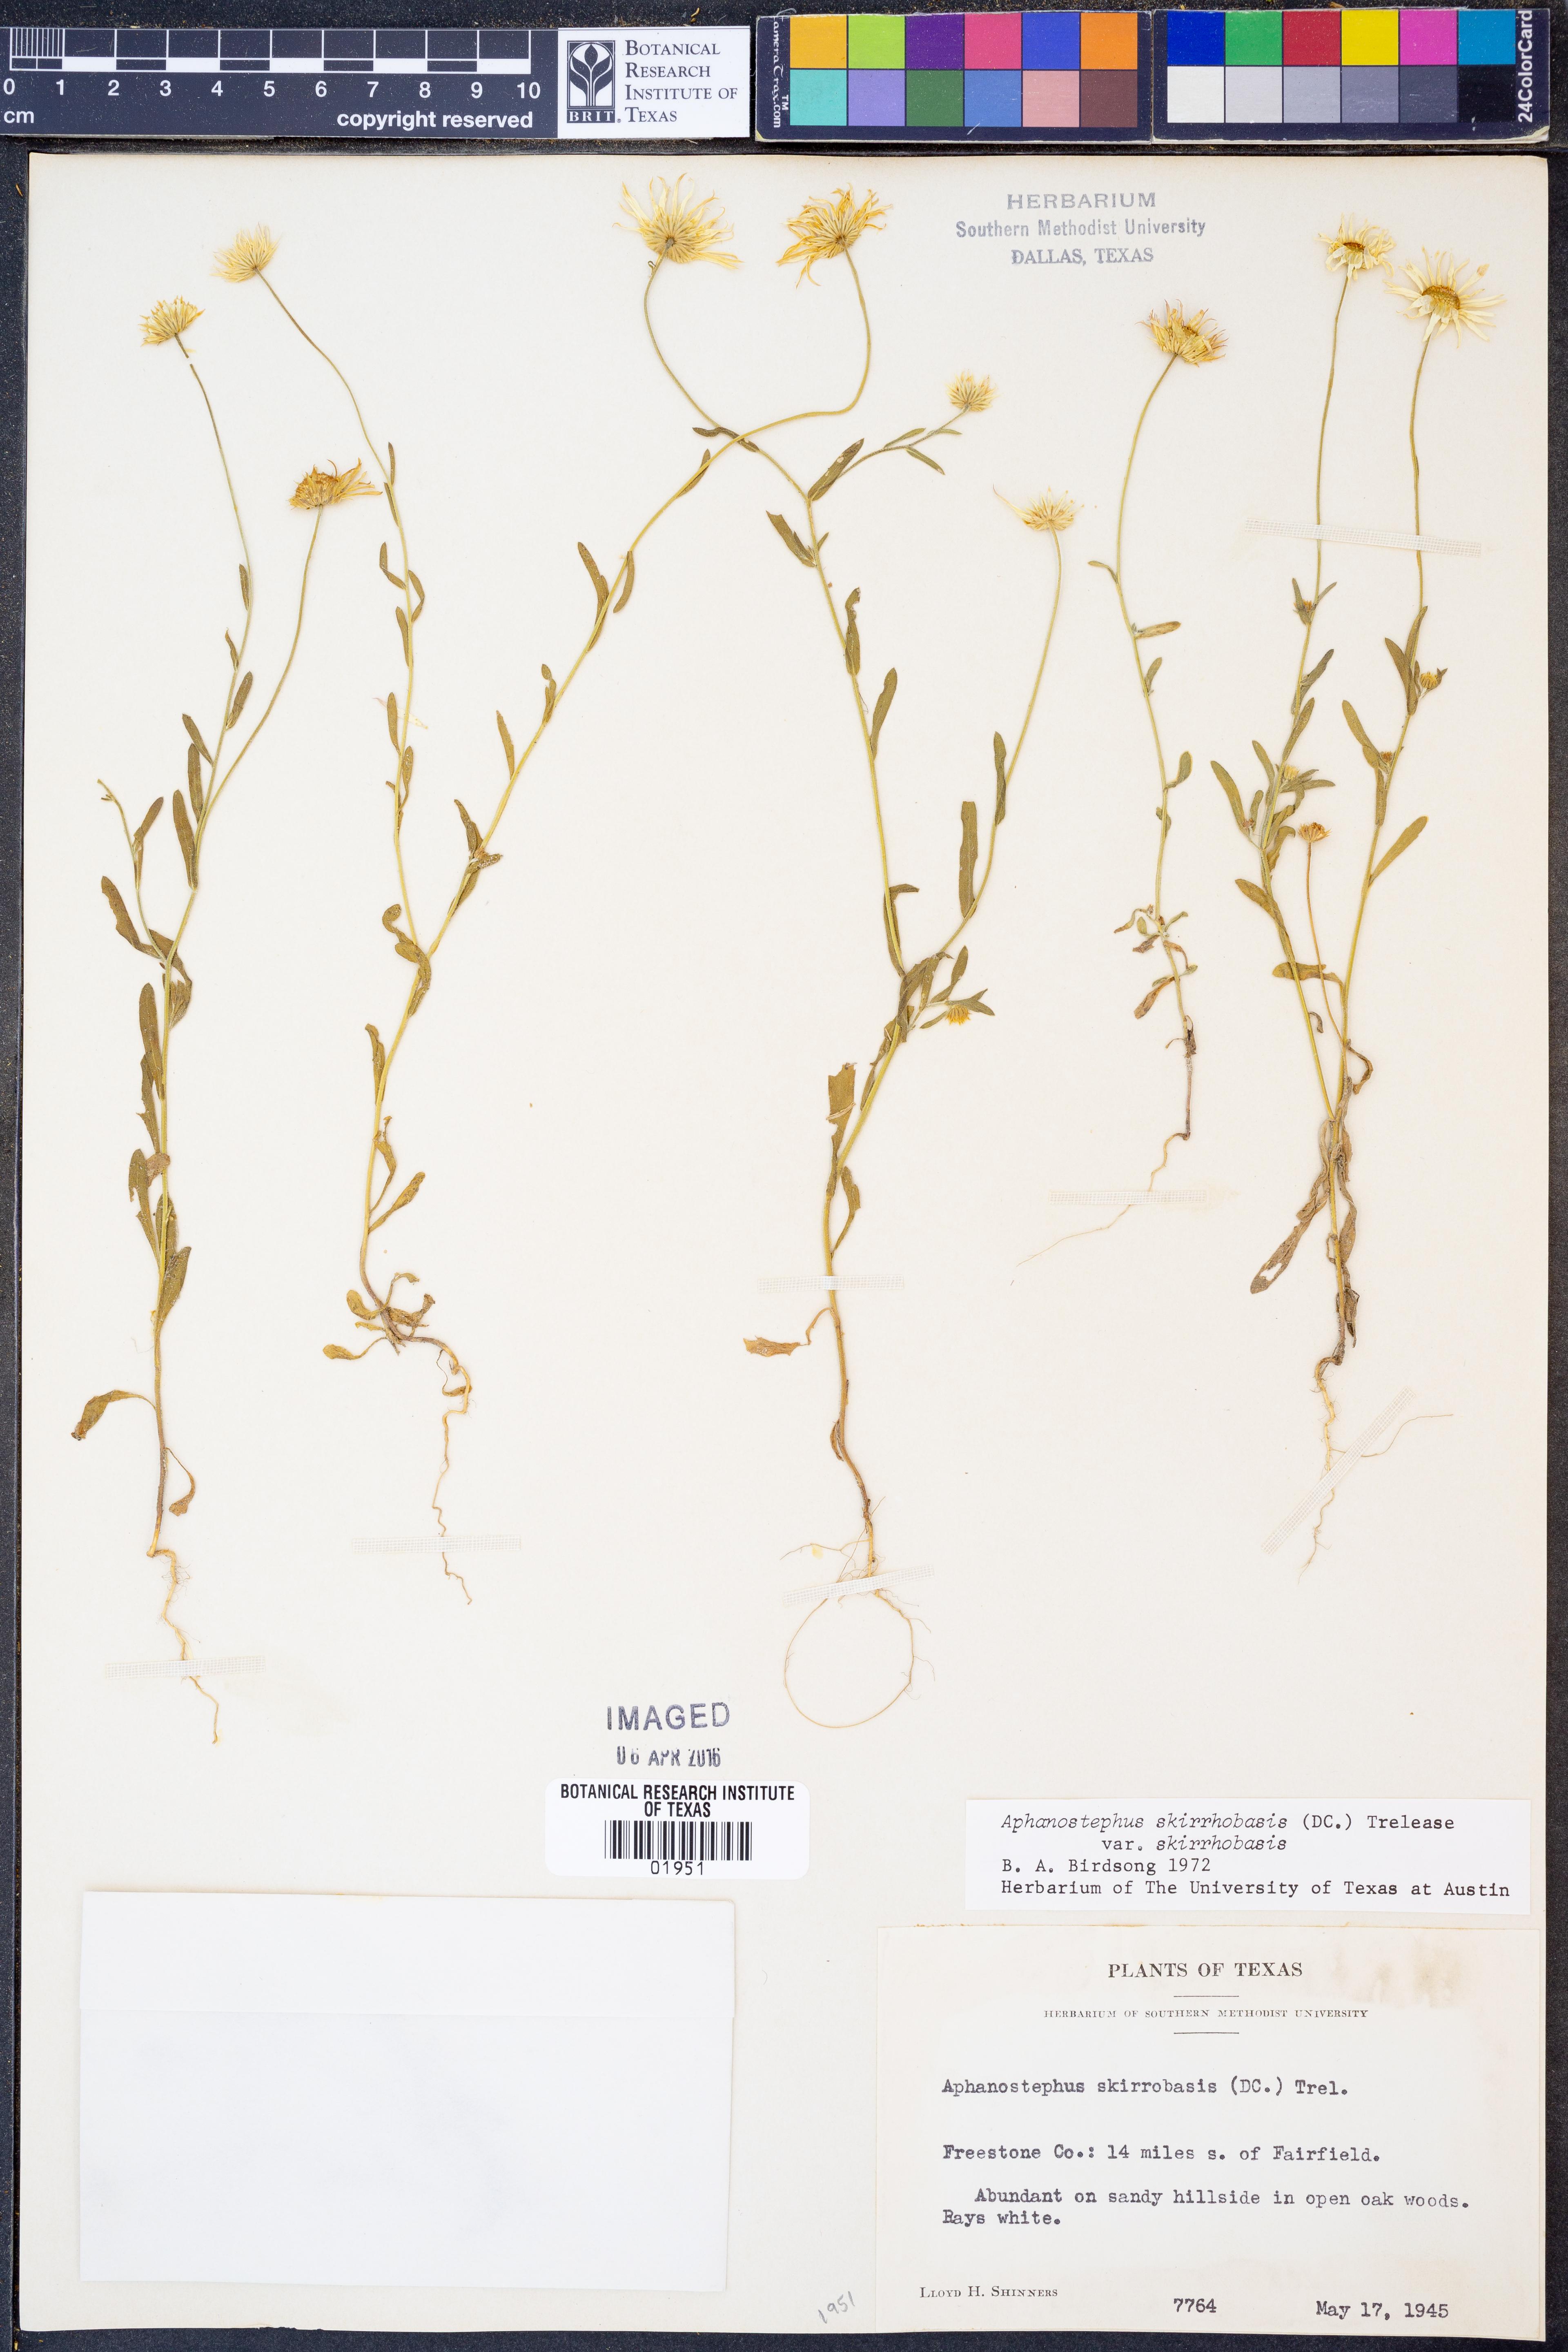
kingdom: Plantae
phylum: Tracheophyta
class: Magnoliopsida
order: Asterales
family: Asteraceae
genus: Aphanostephus
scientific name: Aphanostephus skirrhobasis
